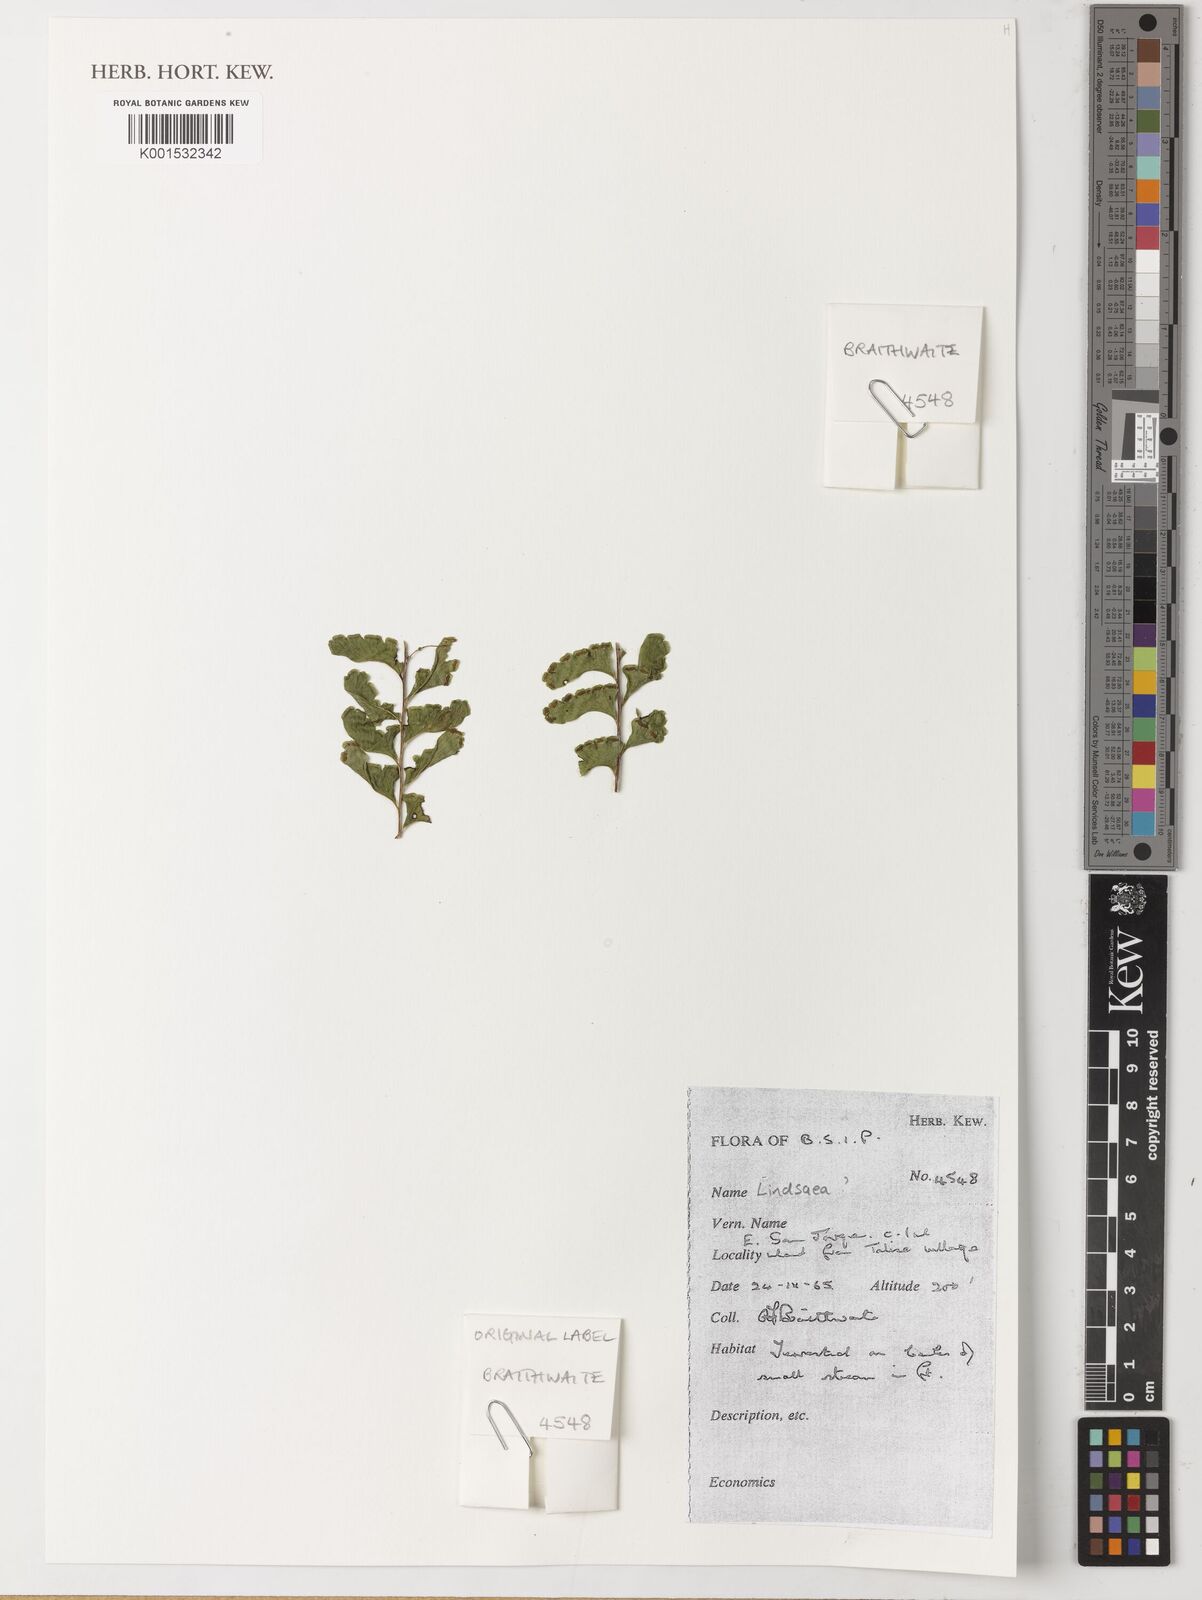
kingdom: Plantae
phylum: Tracheophyta
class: Polypodiopsida
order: Polypodiales
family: Lindsaeaceae
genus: Lindsaea
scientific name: Lindsaea
